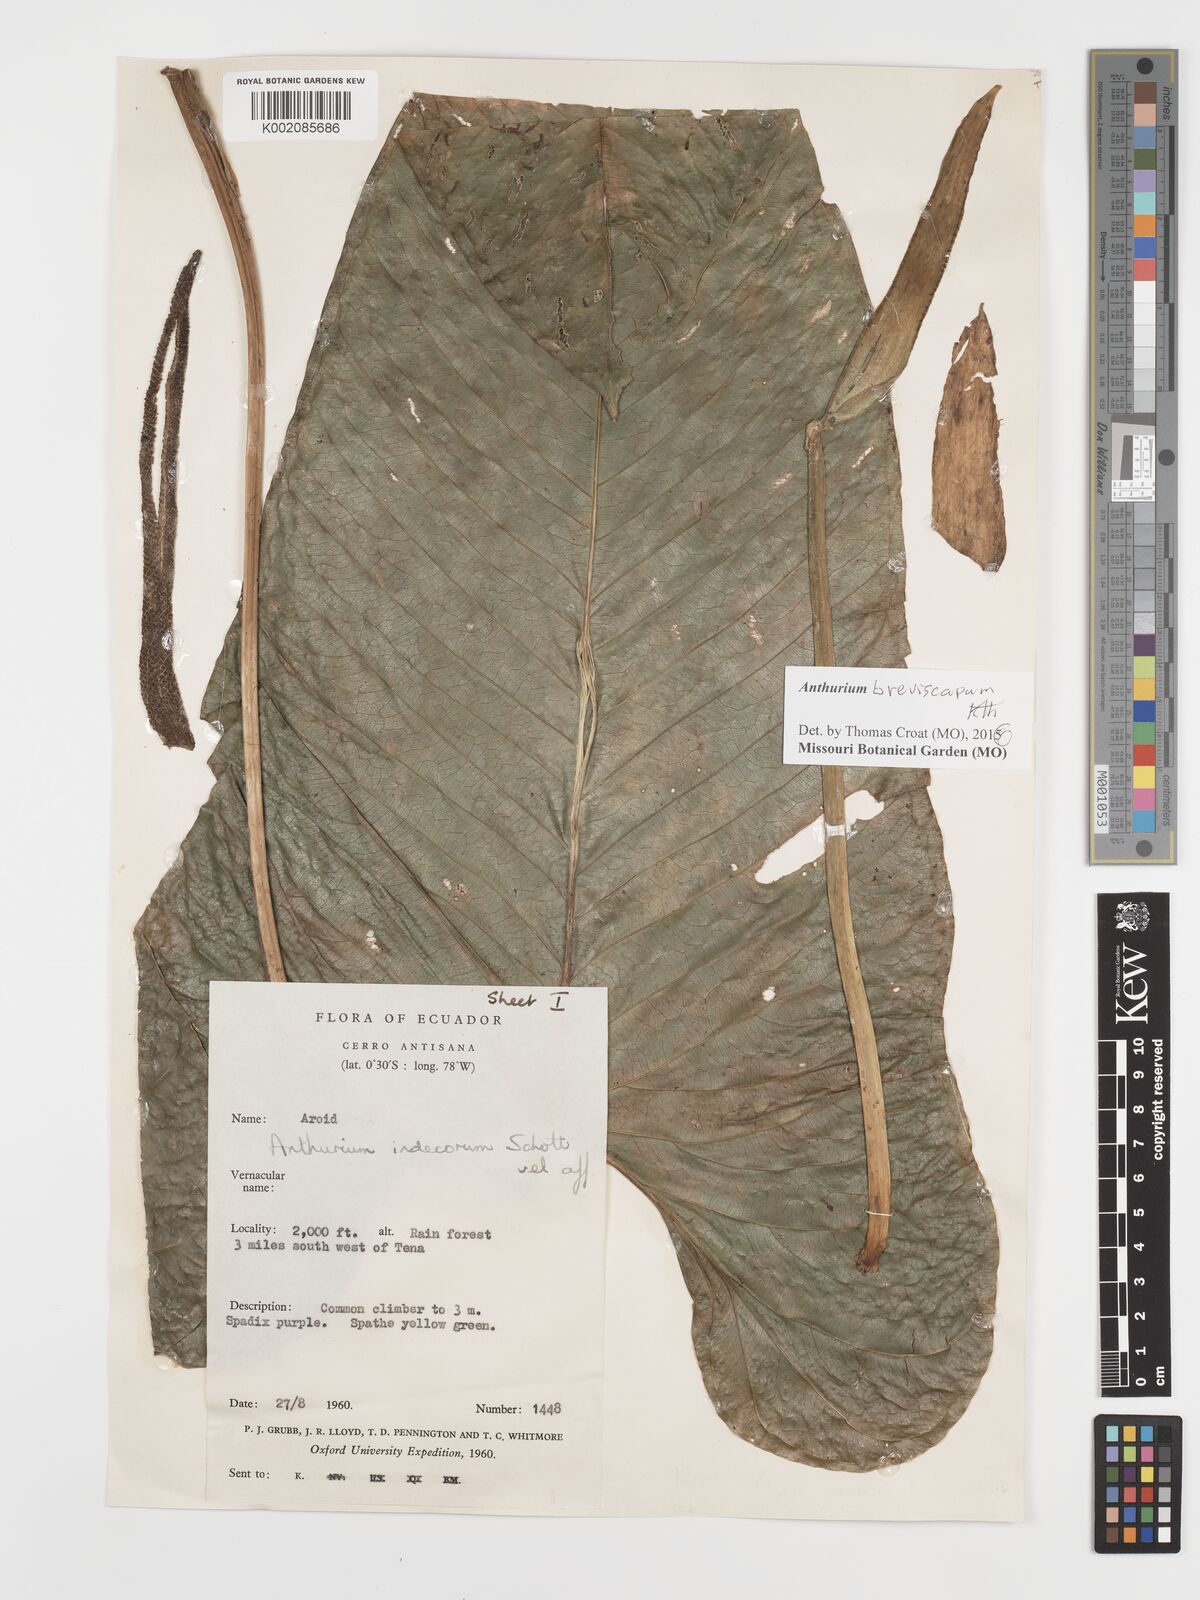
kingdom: Plantae
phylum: Tracheophyta
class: Liliopsida
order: Alismatales
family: Araceae
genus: Anthurium
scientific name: Anthurium breviscapum
